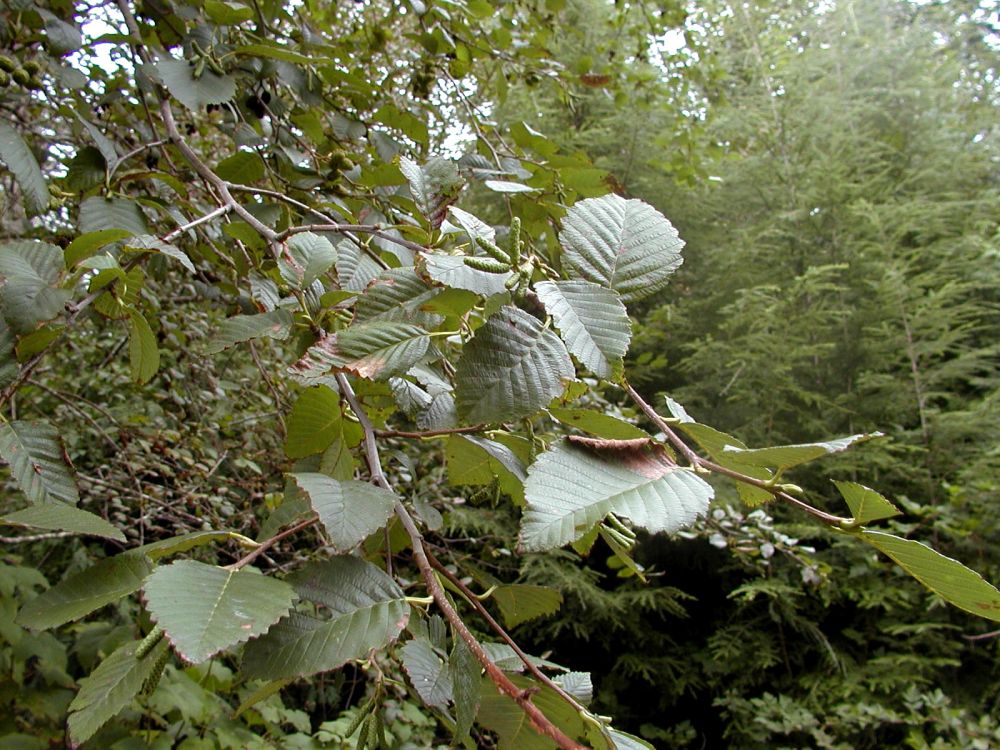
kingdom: Plantae
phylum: Tracheophyta
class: Magnoliopsida
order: Fagales
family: Betulaceae
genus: Alnus
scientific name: Alnus rubra
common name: Red alder
